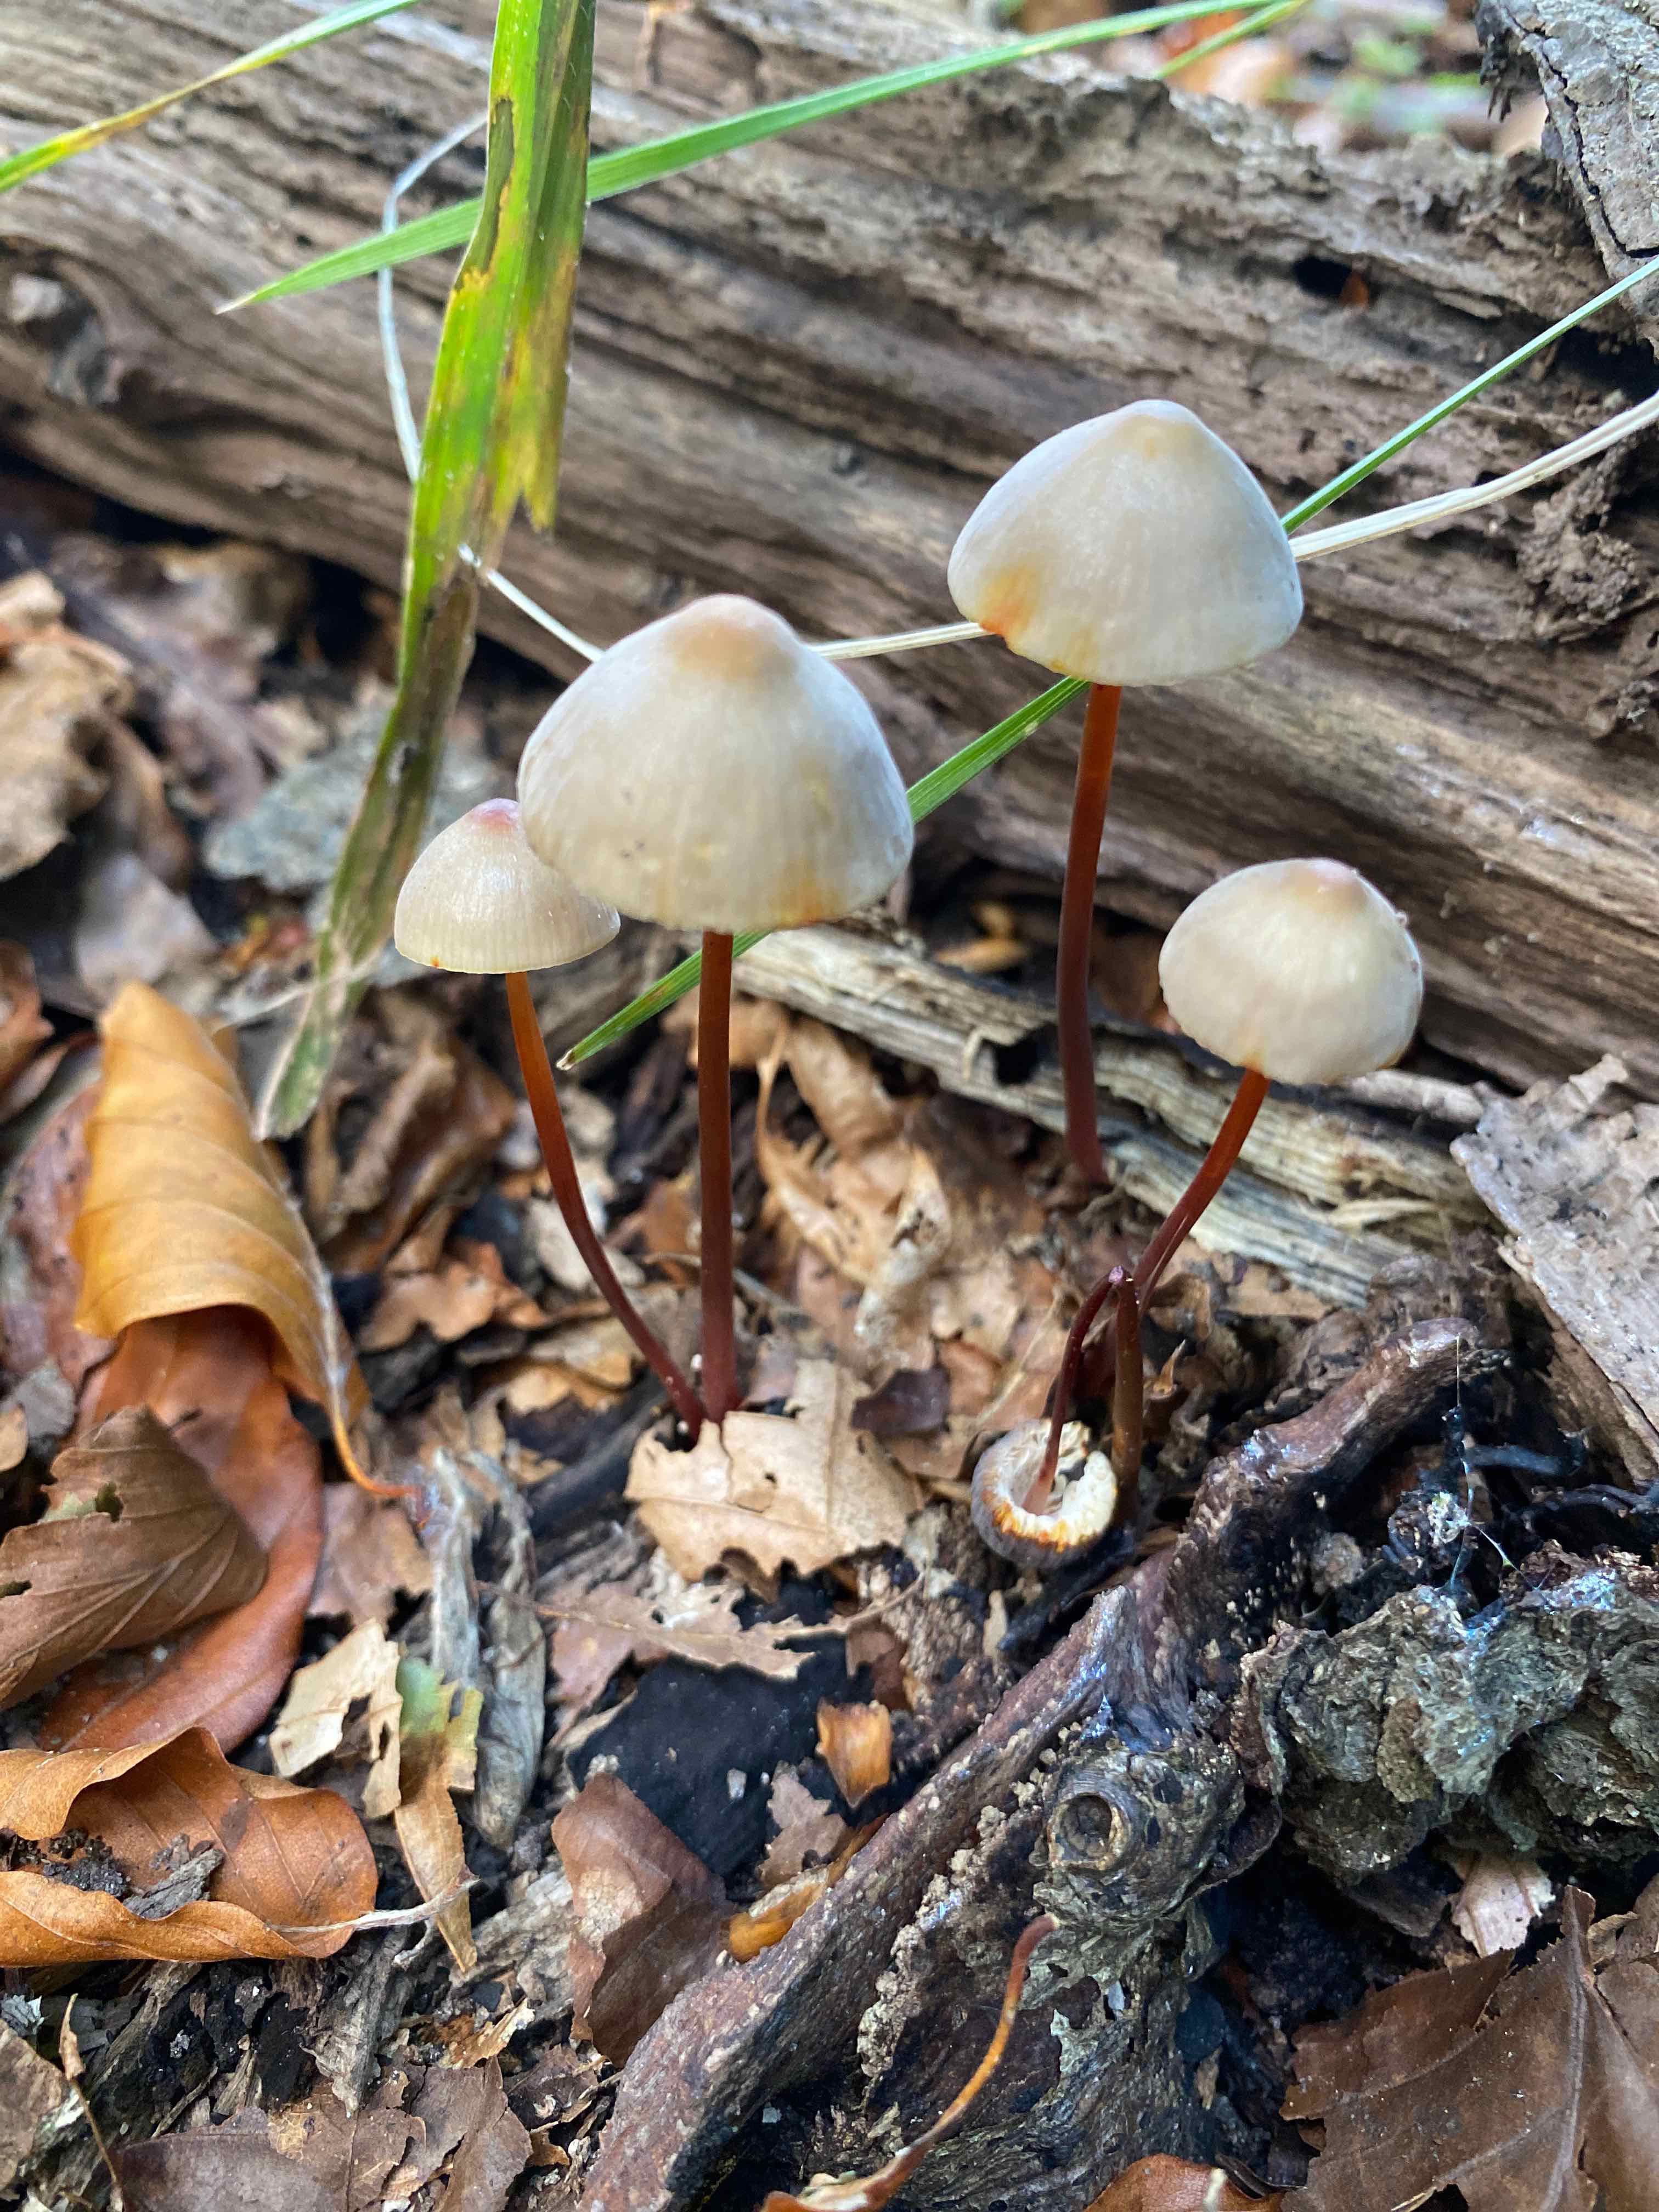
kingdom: Fungi
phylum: Basidiomycota
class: Agaricomycetes
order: Agaricales
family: Mycenaceae
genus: Mycena
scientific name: Mycena crocata
